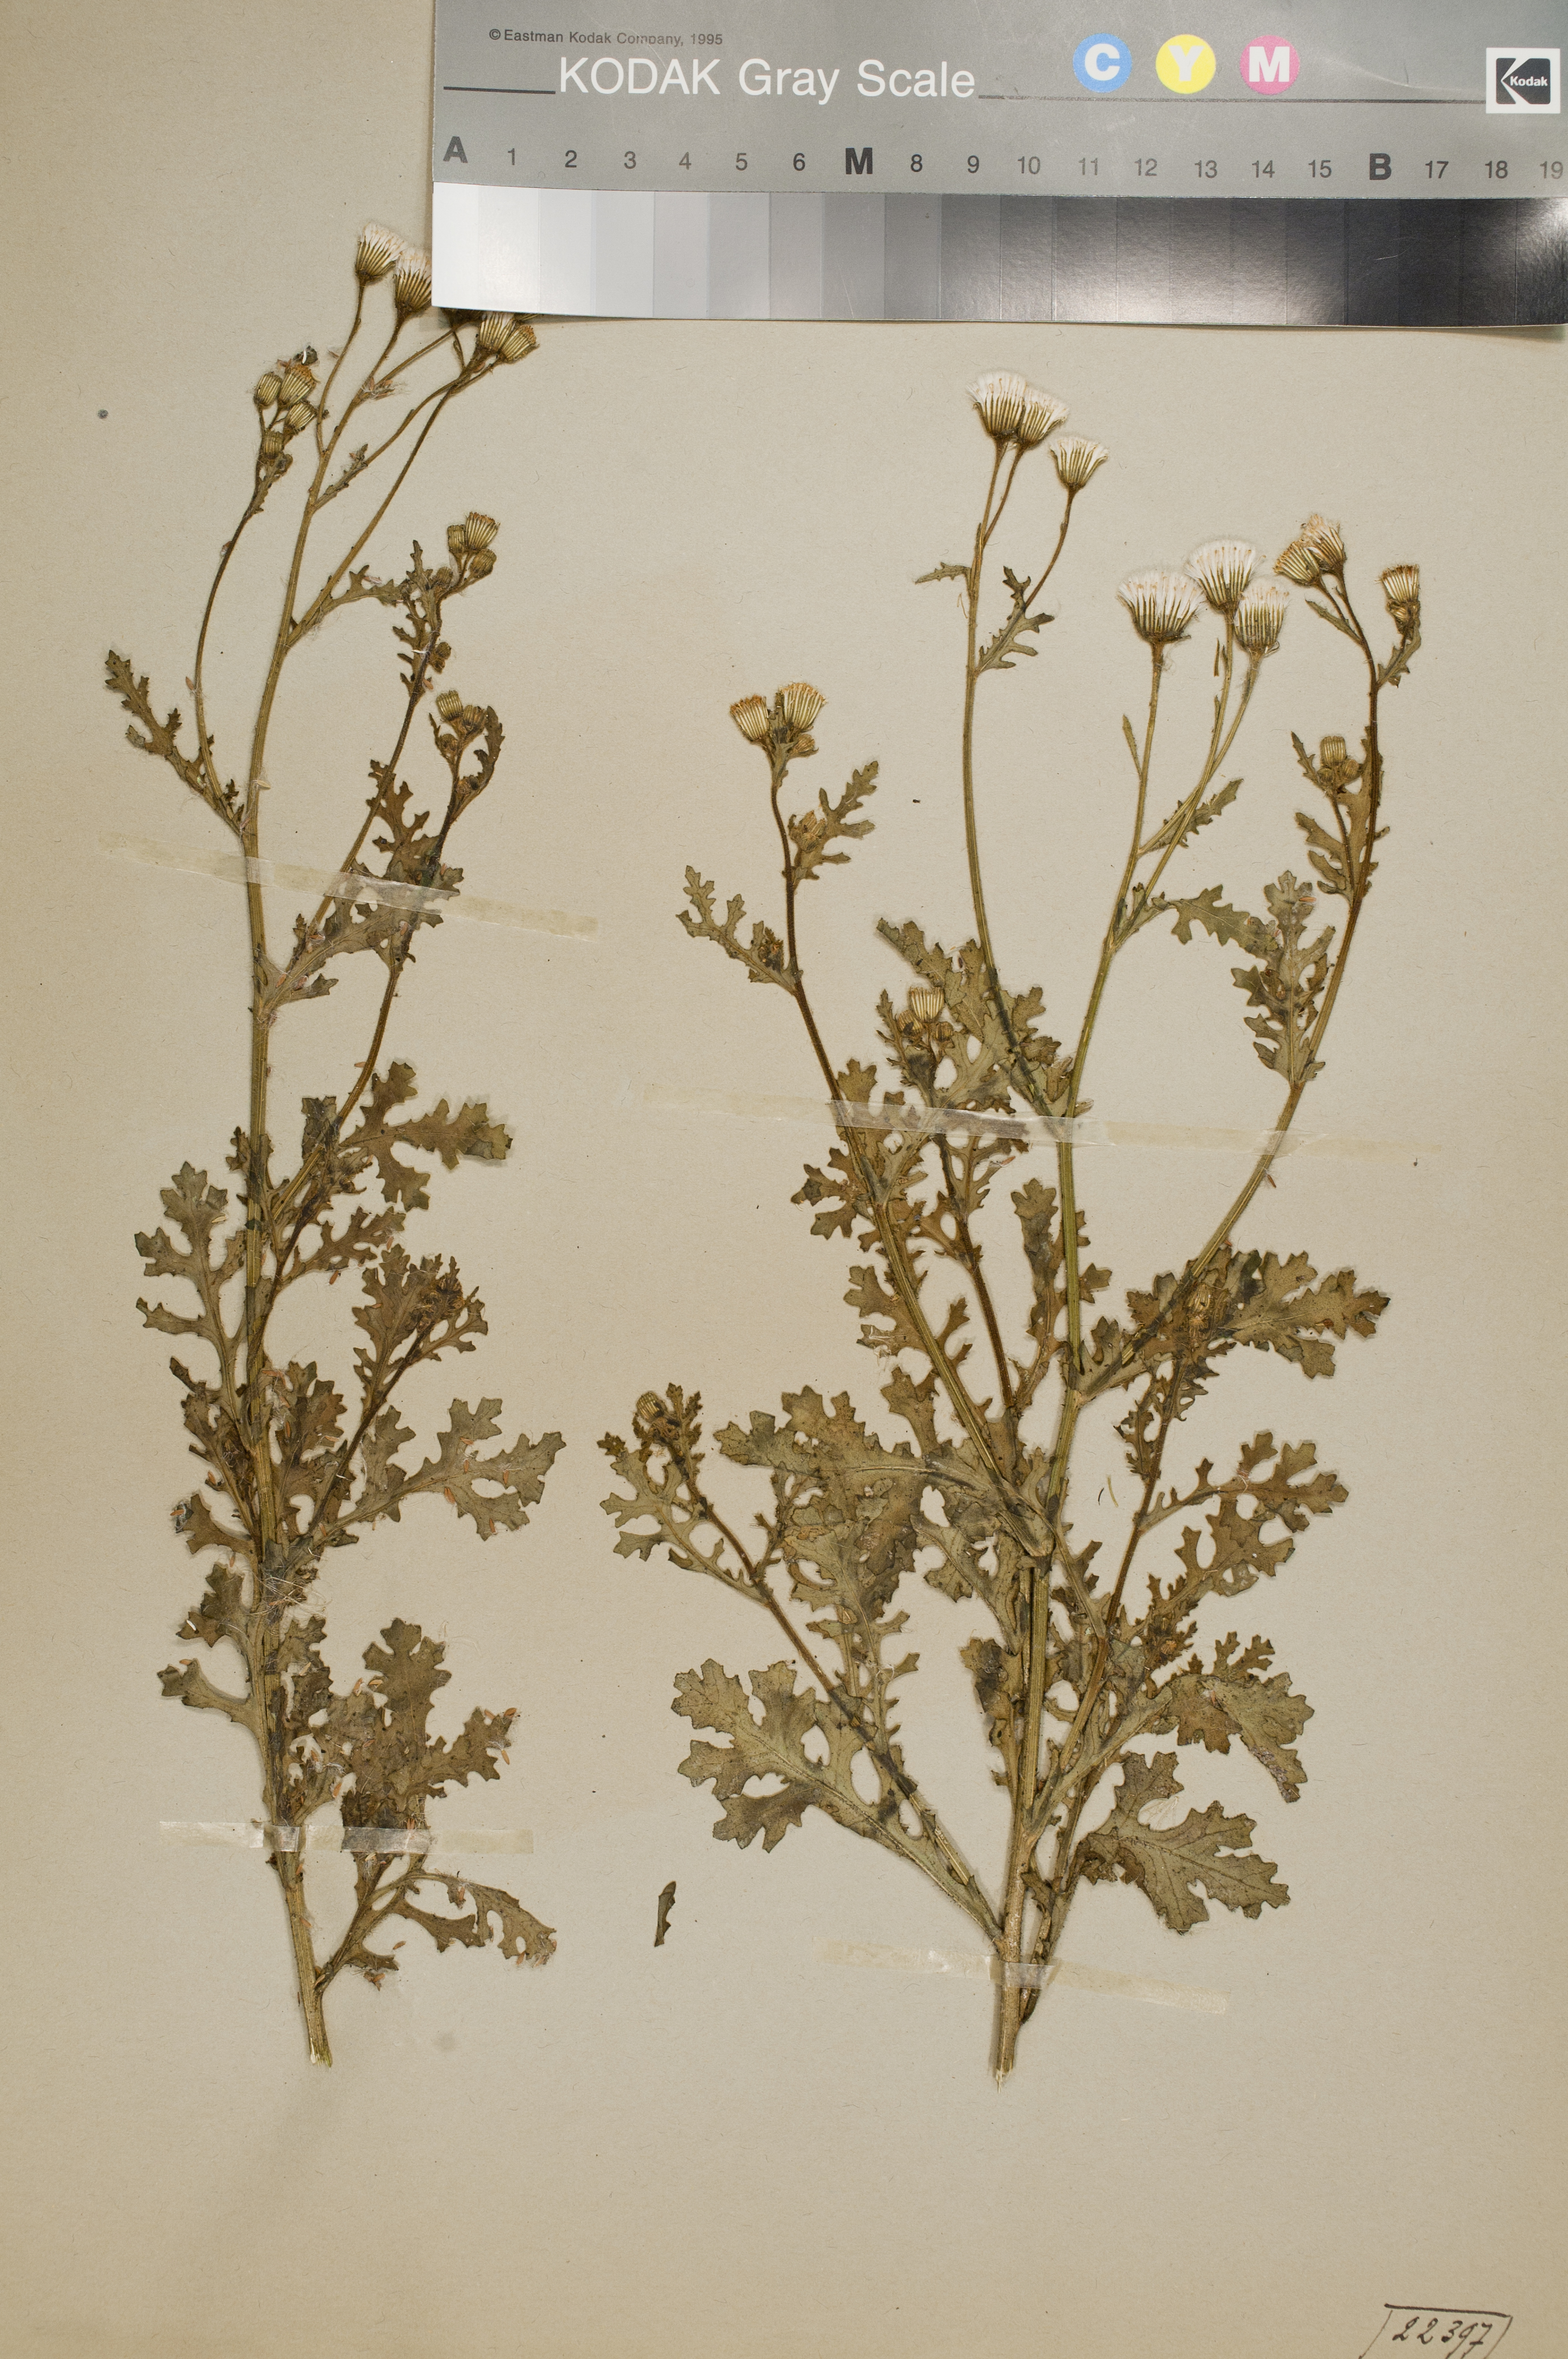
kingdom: Plantae
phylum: Tracheophyta
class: Magnoliopsida
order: Asterales
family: Asteraceae
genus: Senecio
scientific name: Senecio viscosus
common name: Sticky groundsel
